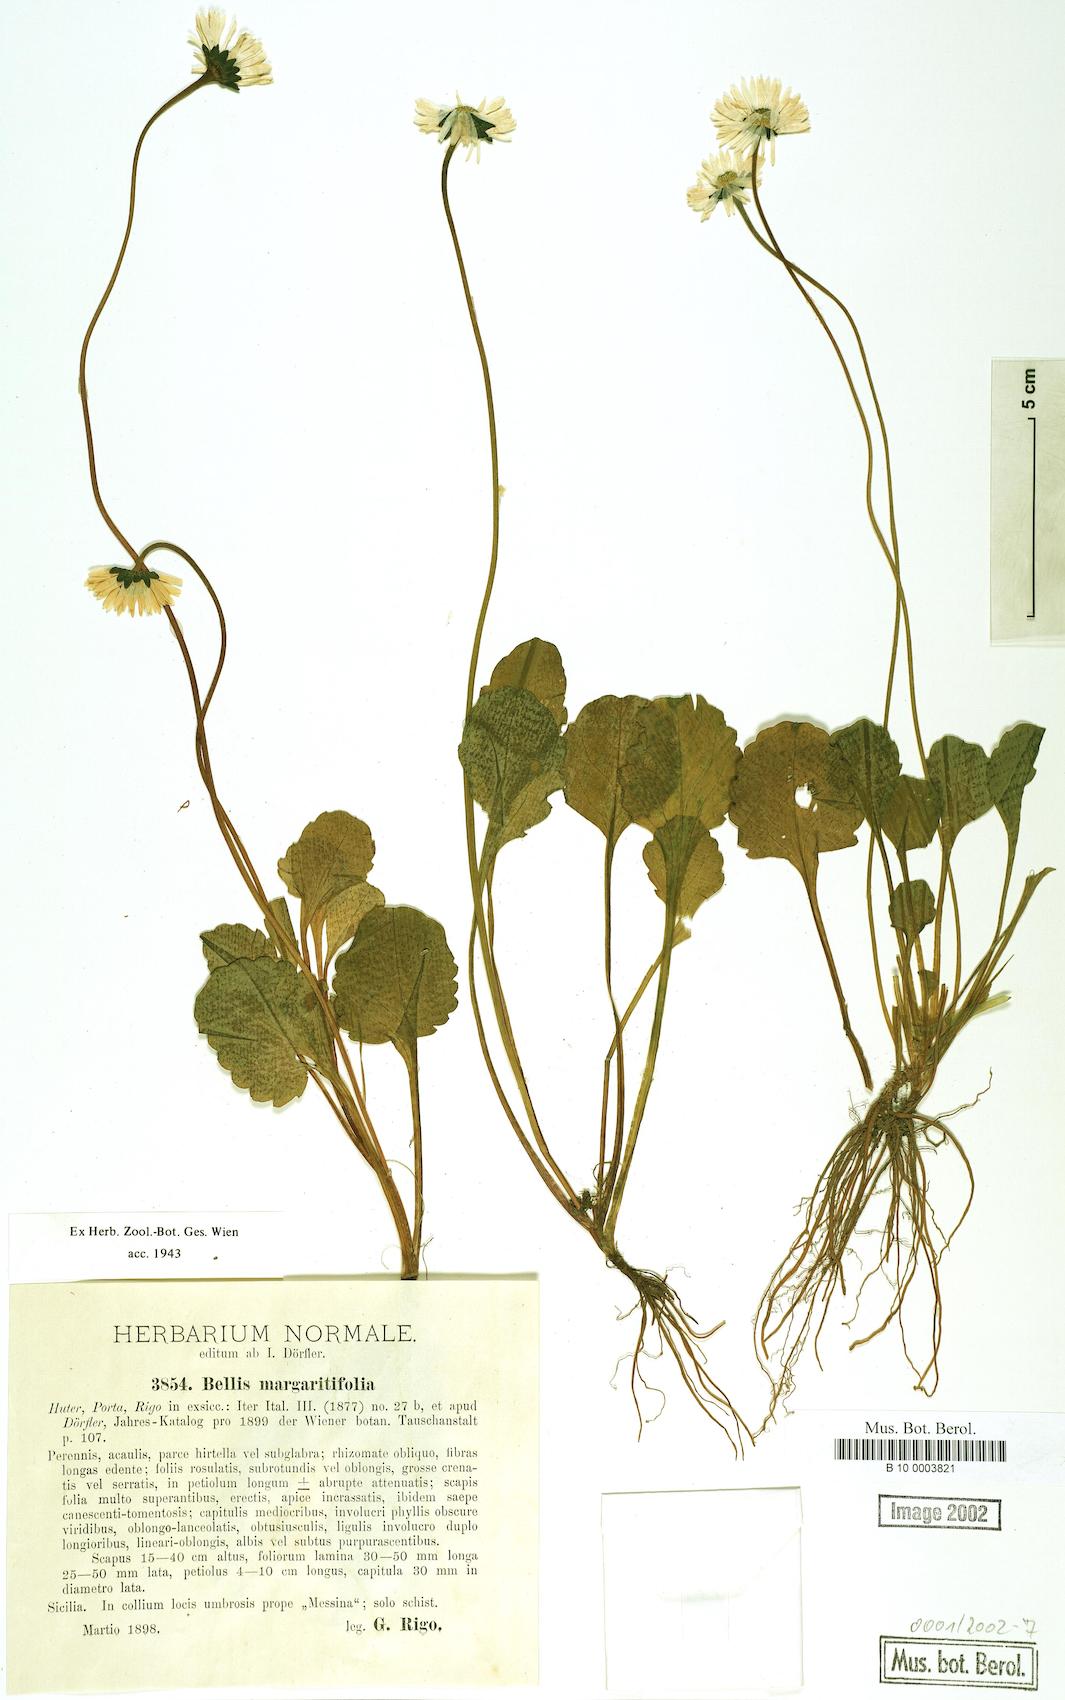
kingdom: Plantae
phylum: Tracheophyta
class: Magnoliopsida
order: Asterales
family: Asteraceae
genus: Bellis
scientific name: Bellis margaritifolia
